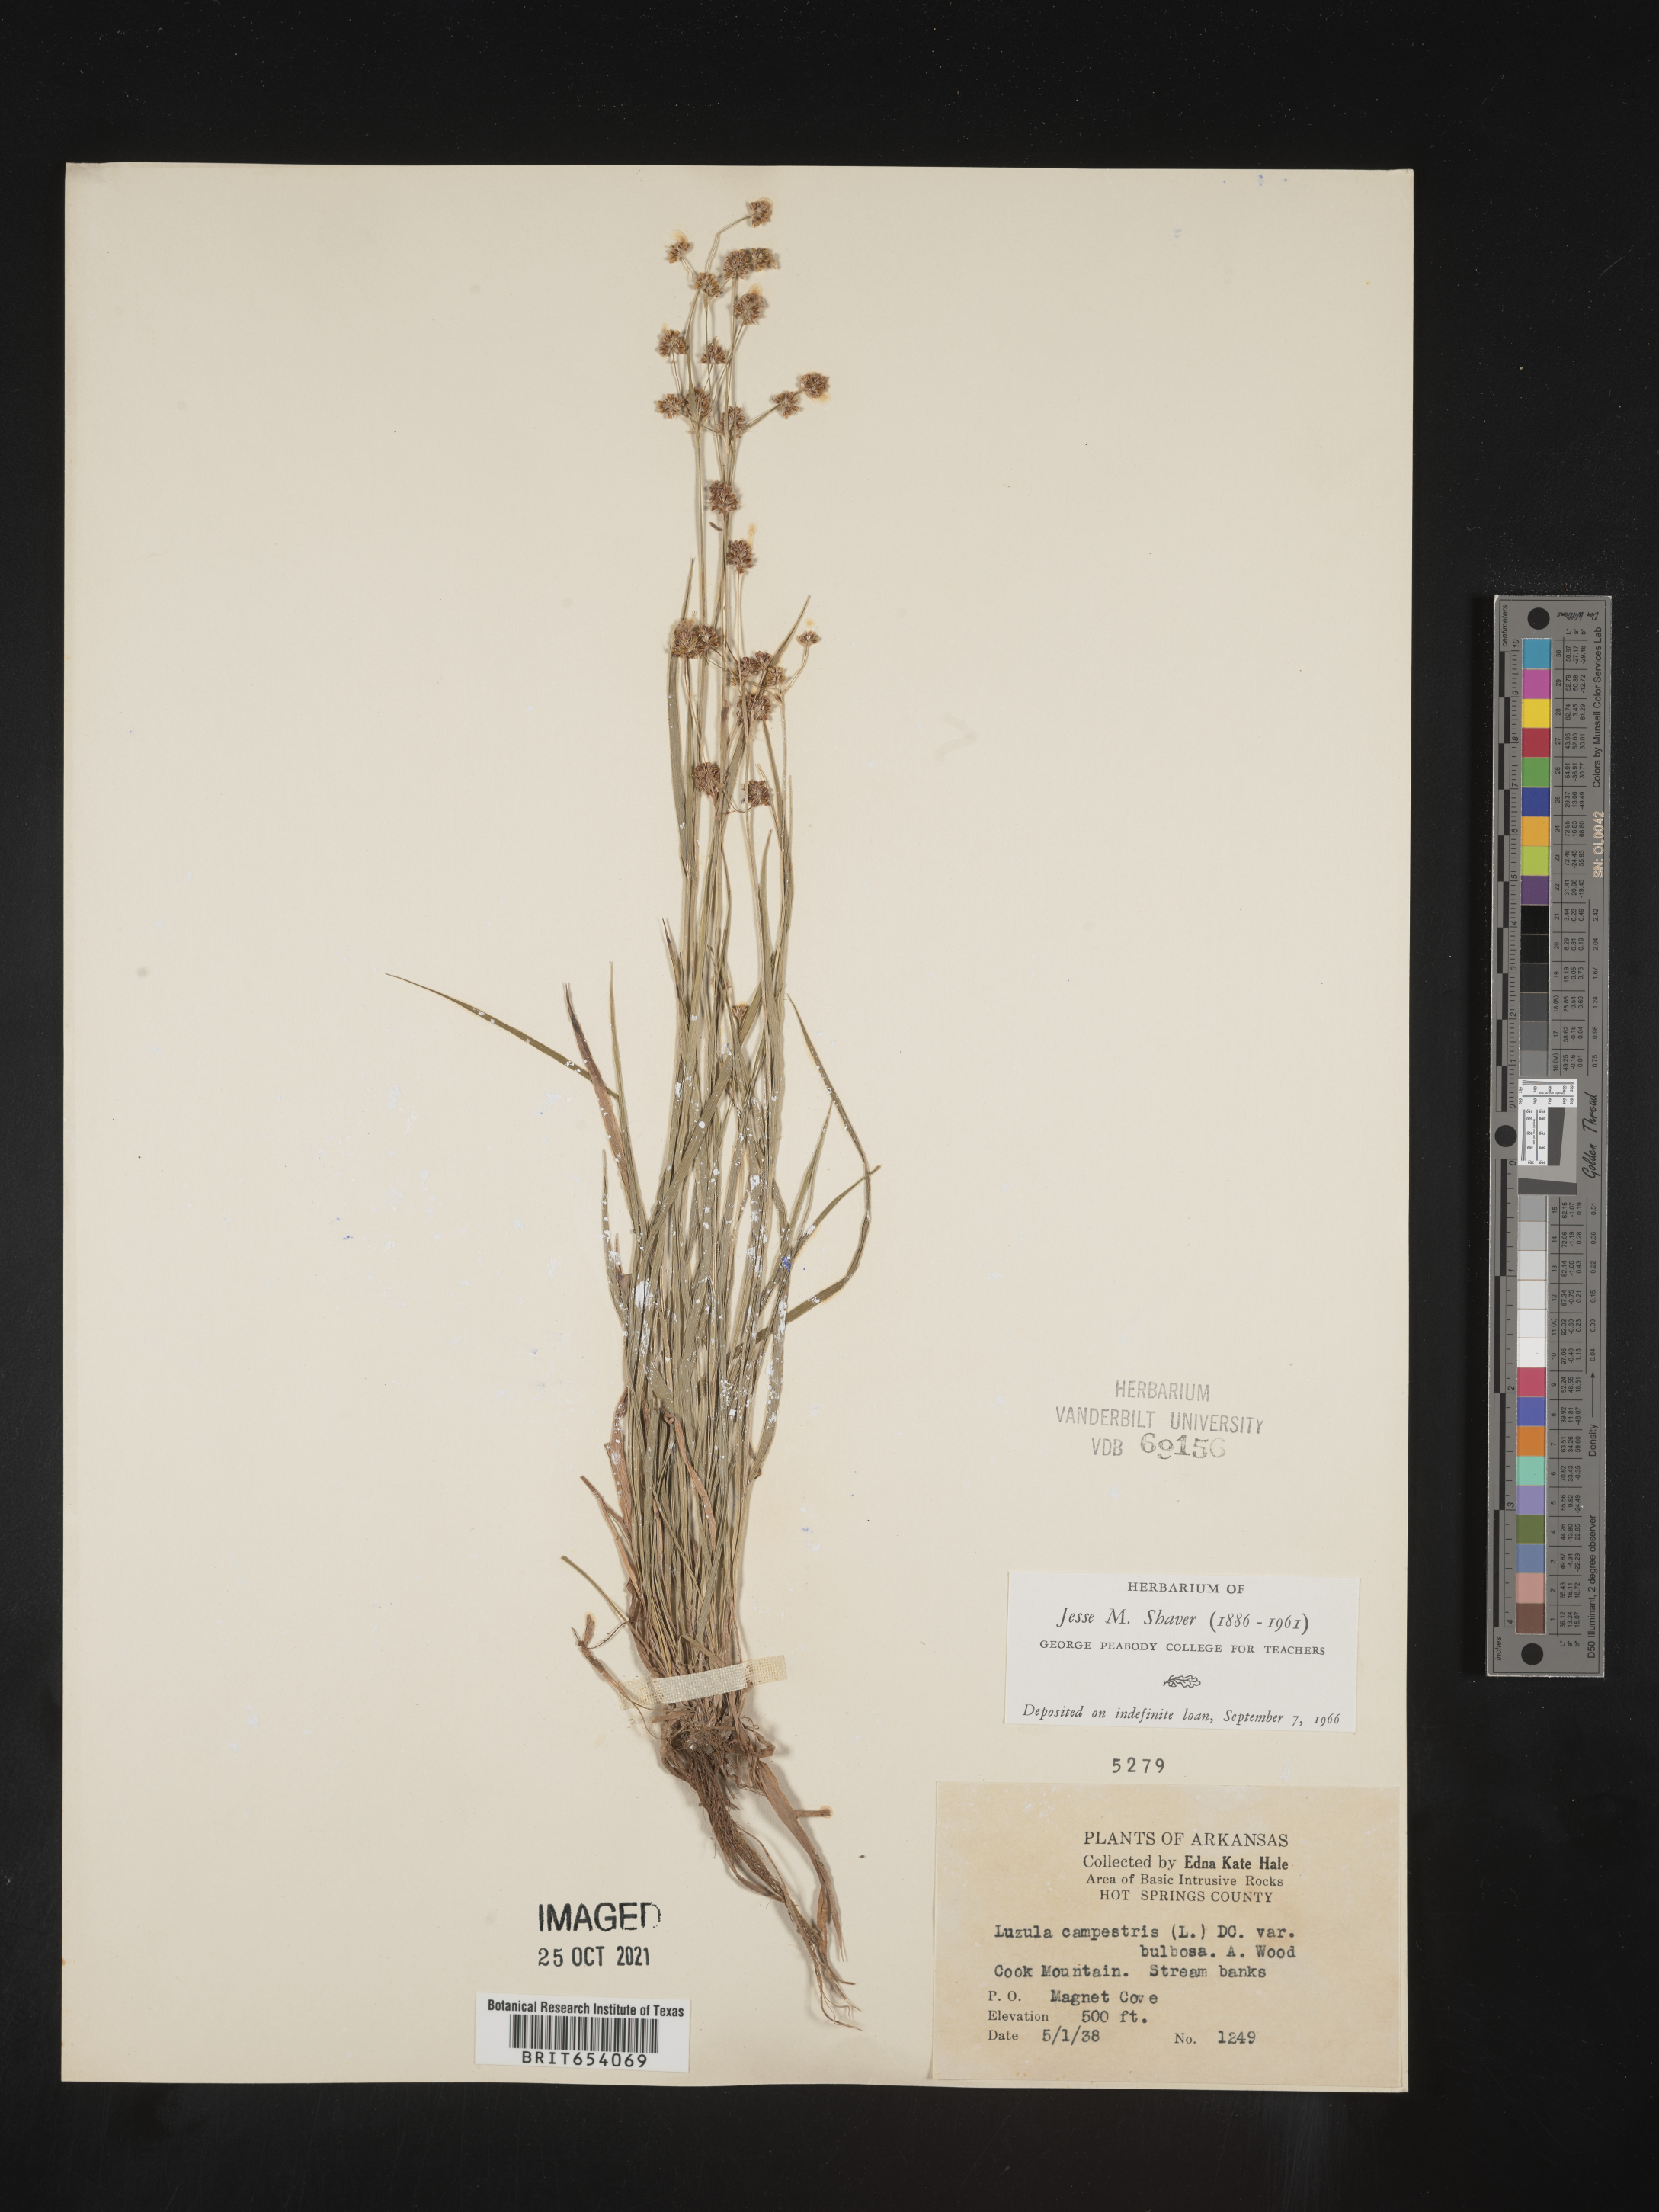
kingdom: Plantae
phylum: Tracheophyta
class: Liliopsida
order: Poales
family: Juncaceae
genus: Luzula
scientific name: Luzula campestris
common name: Field wood-rush
